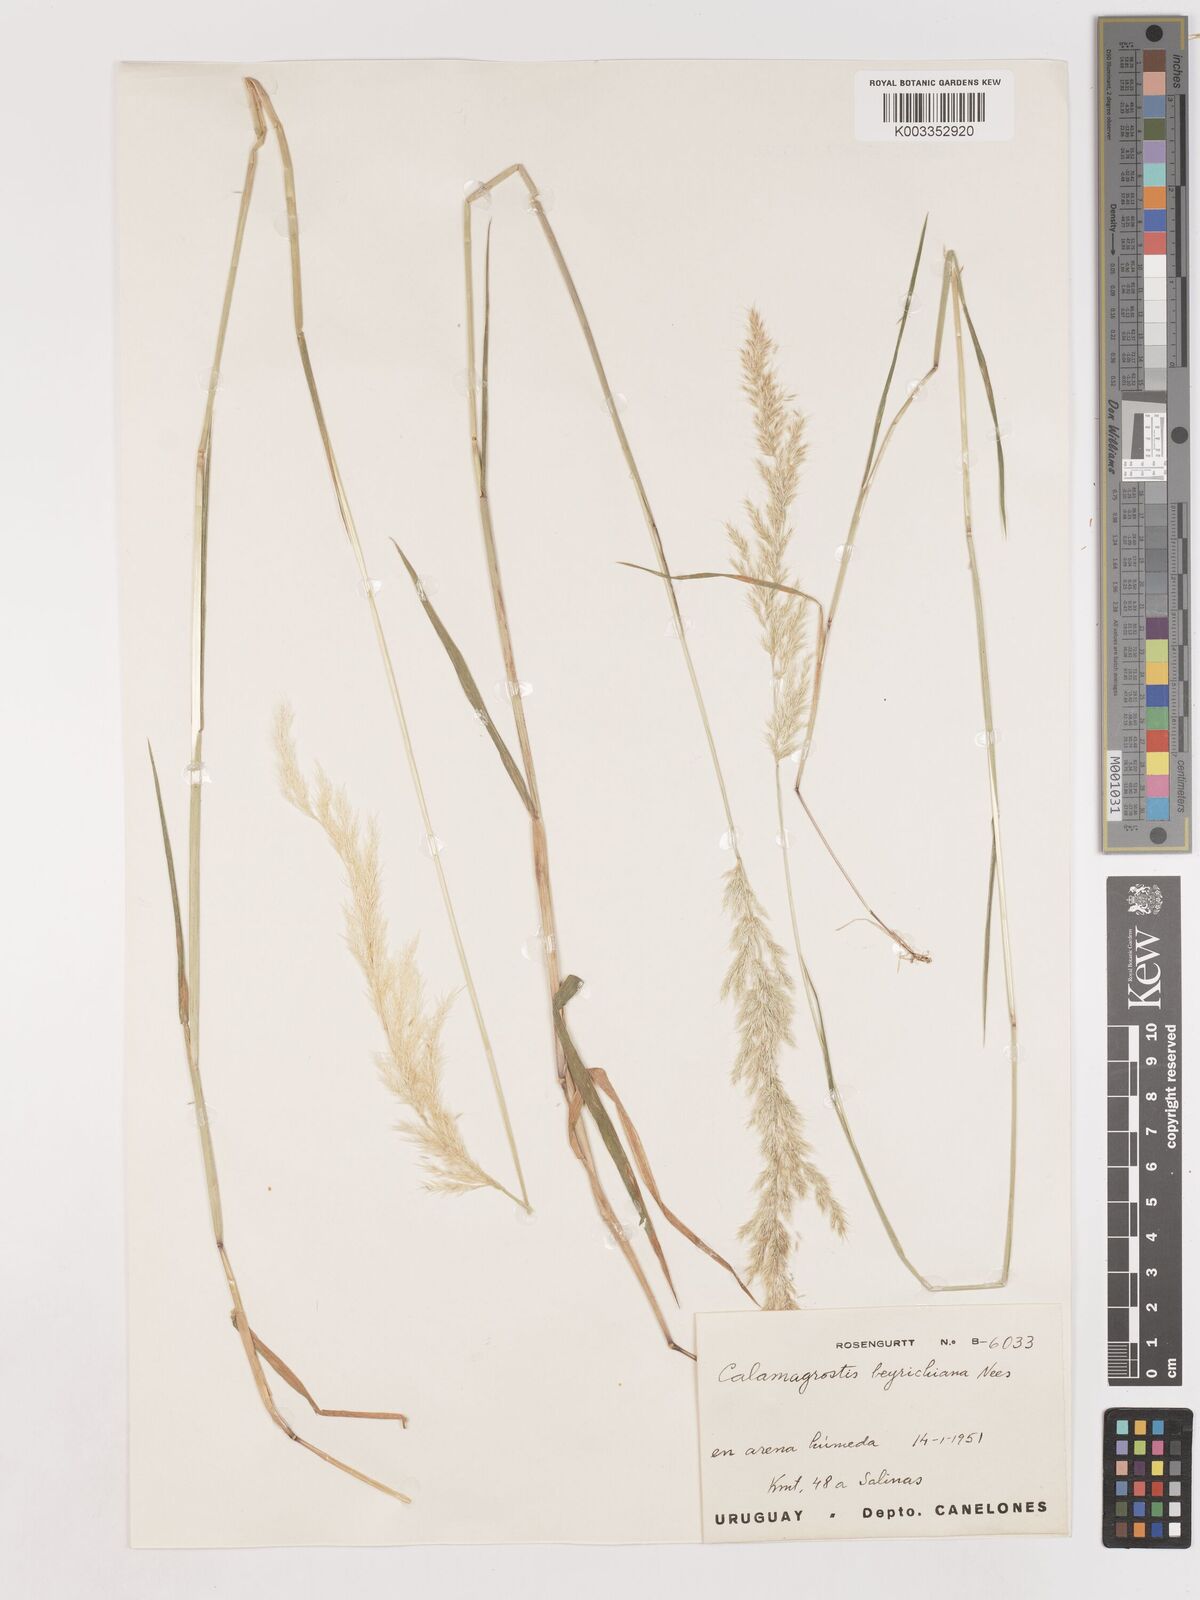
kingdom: Plantae
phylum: Tracheophyta
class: Liliopsida
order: Poales
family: Poaceae
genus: Cinnagrostis
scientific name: Cinnagrostis rupestris
